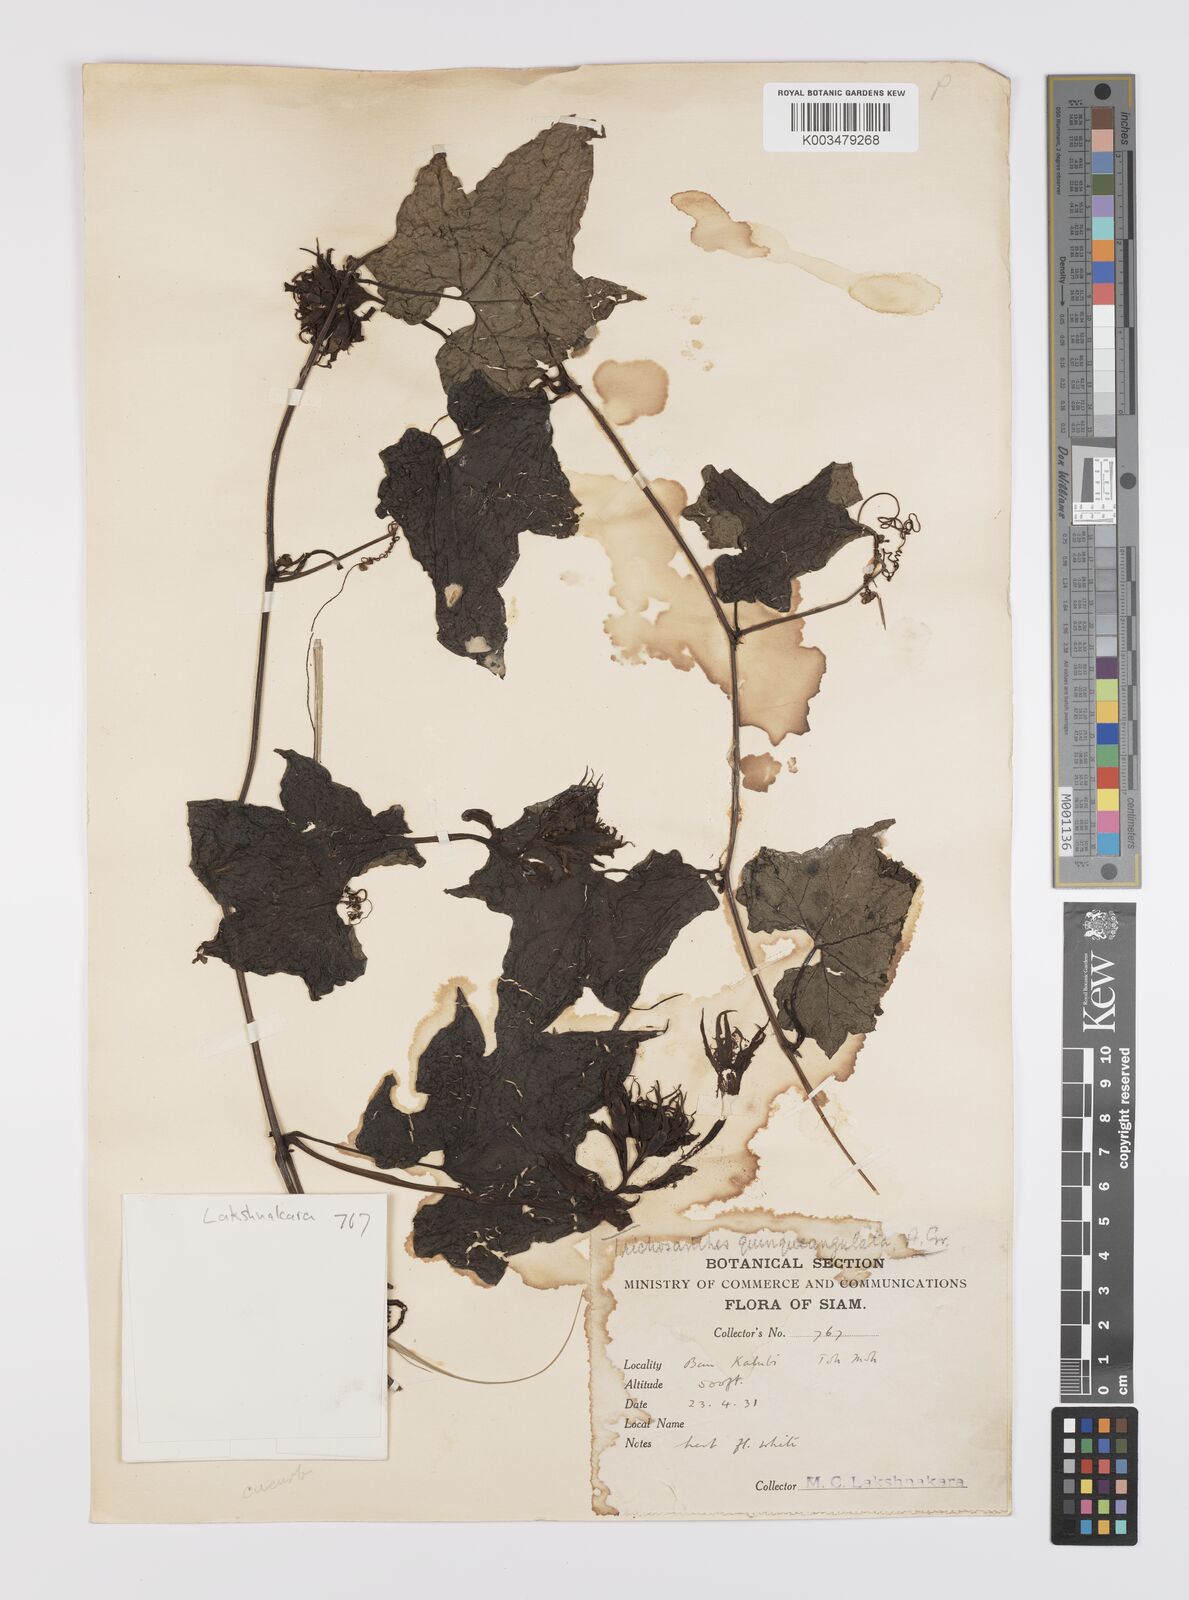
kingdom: Plantae
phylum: Tracheophyta
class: Magnoliopsida
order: Cucurbitales
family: Cucurbitaceae
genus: Trichosanthes
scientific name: Trichosanthes quinquangulata
